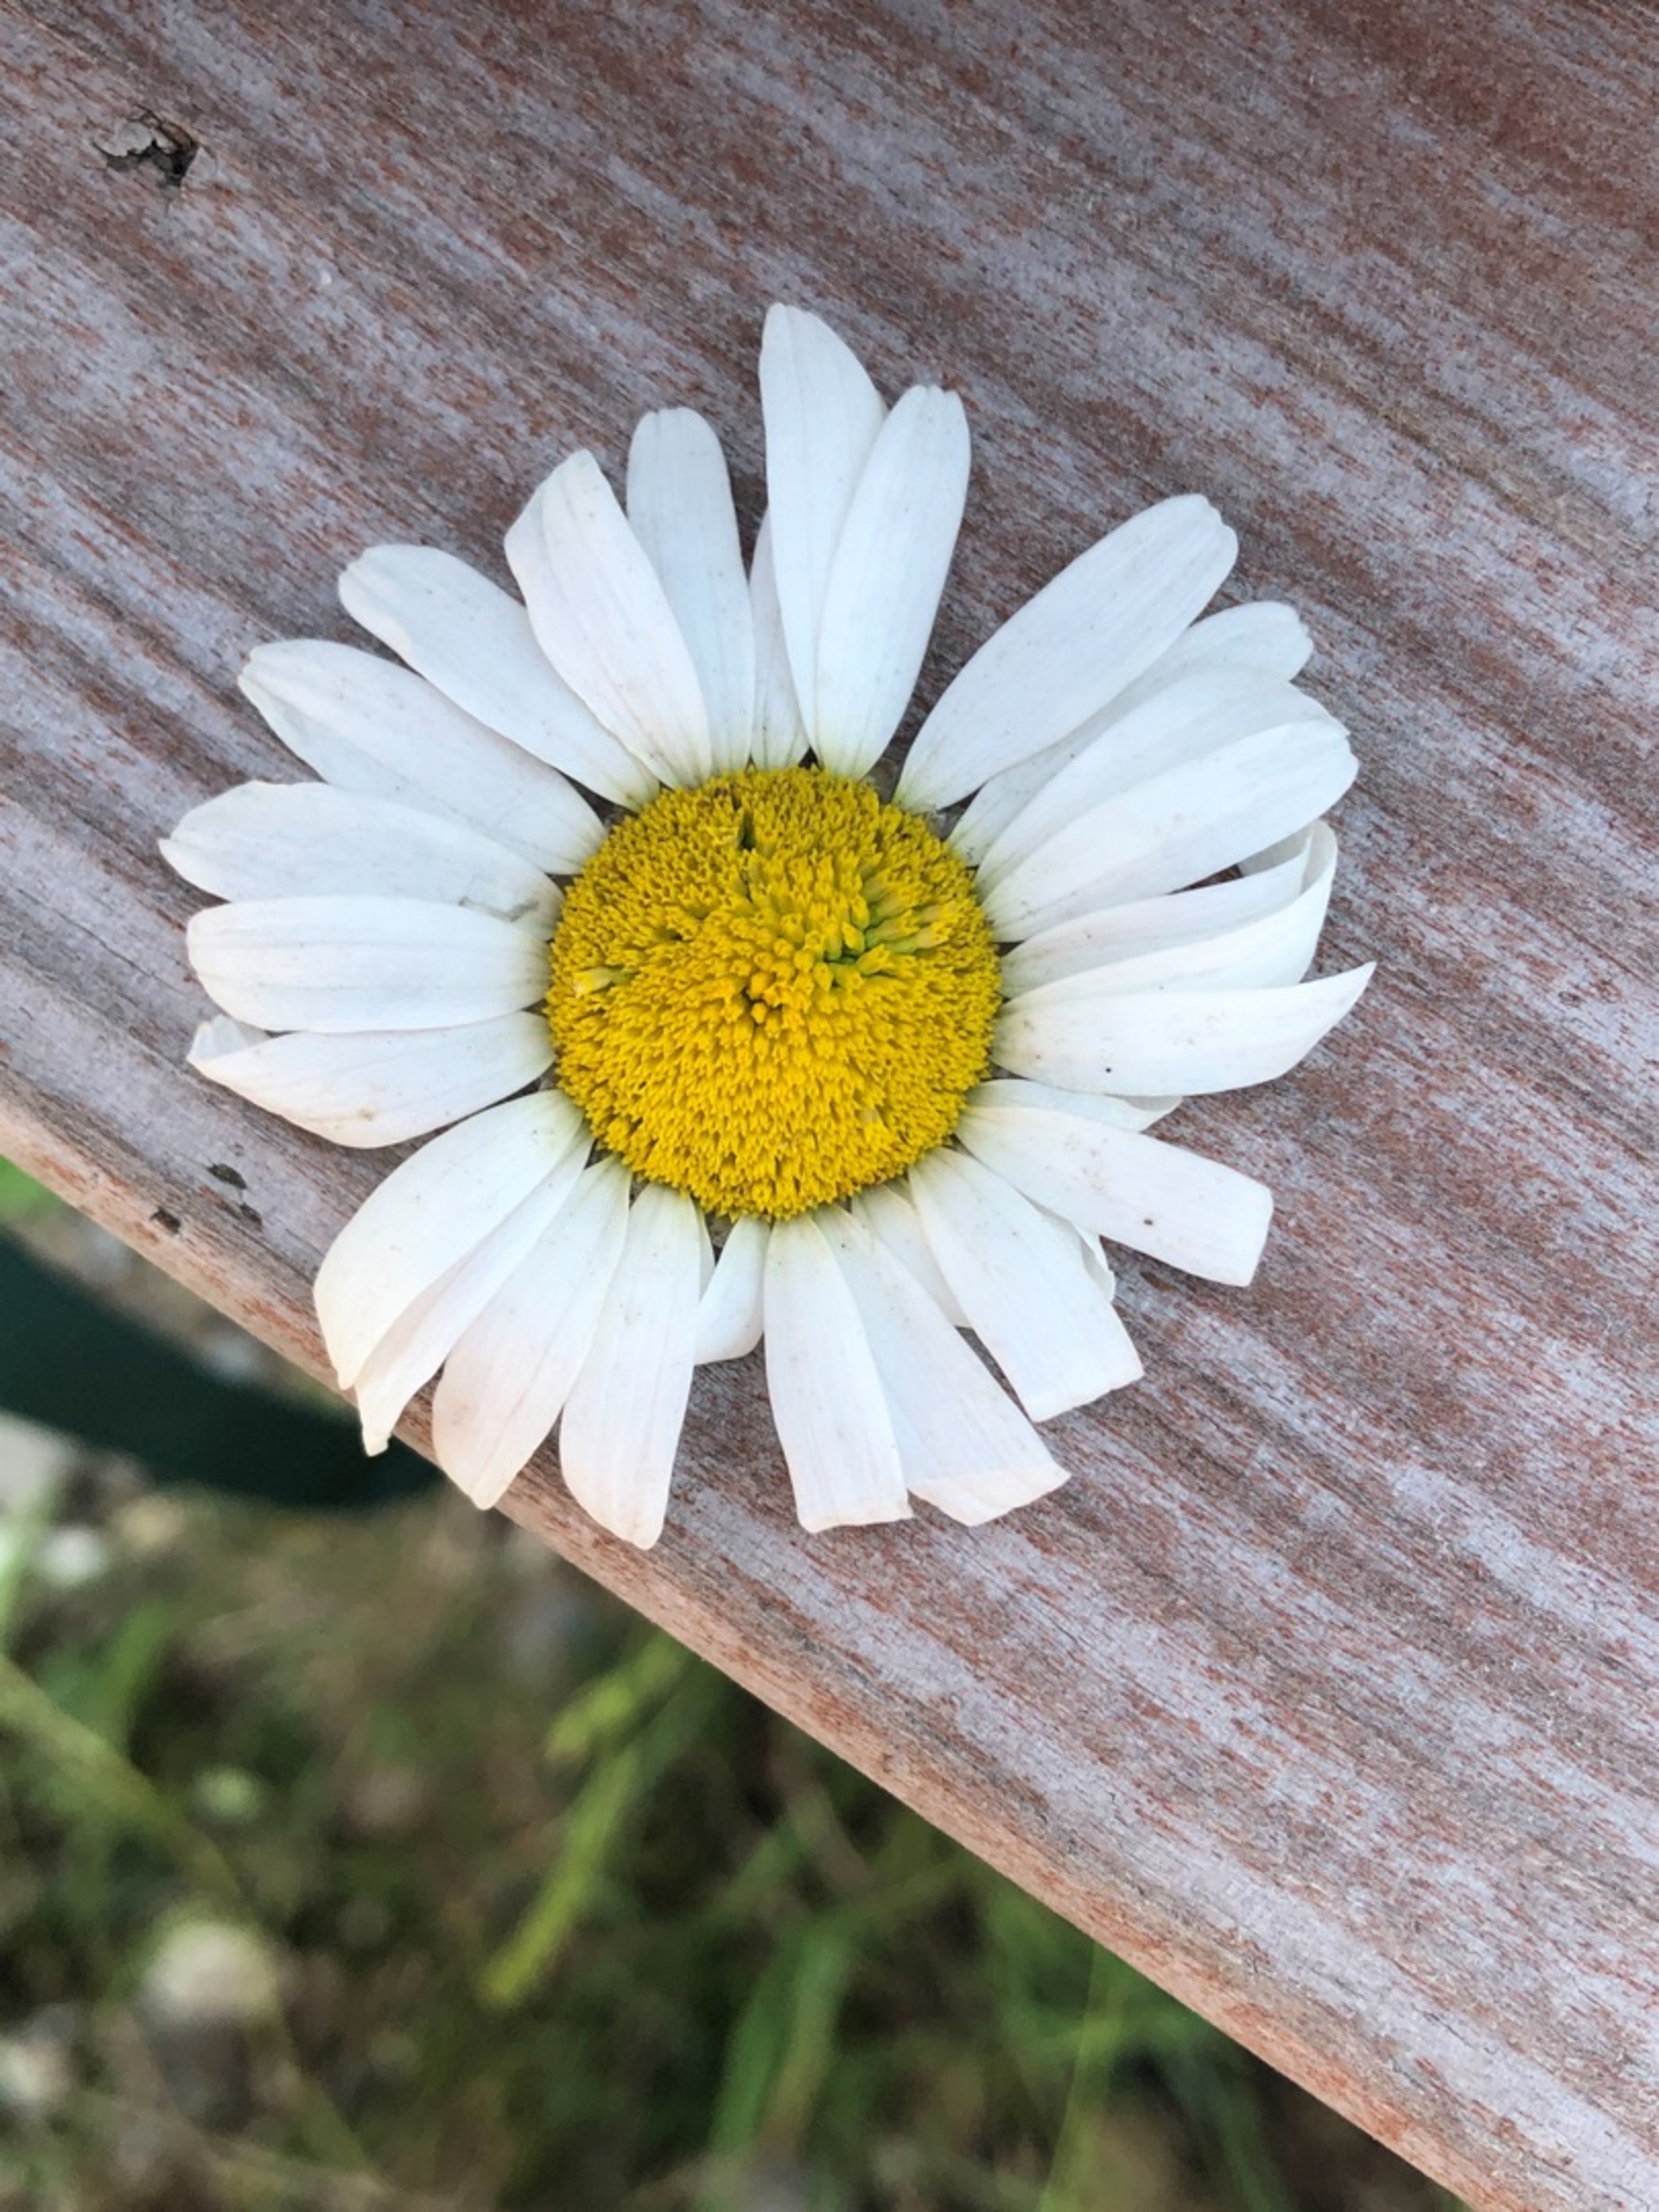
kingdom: Plantae
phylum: Tracheophyta
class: Magnoliopsida
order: Asterales
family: Asteraceae
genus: Leucanthemum
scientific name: Leucanthemum vulgare
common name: Hvid okseøje
